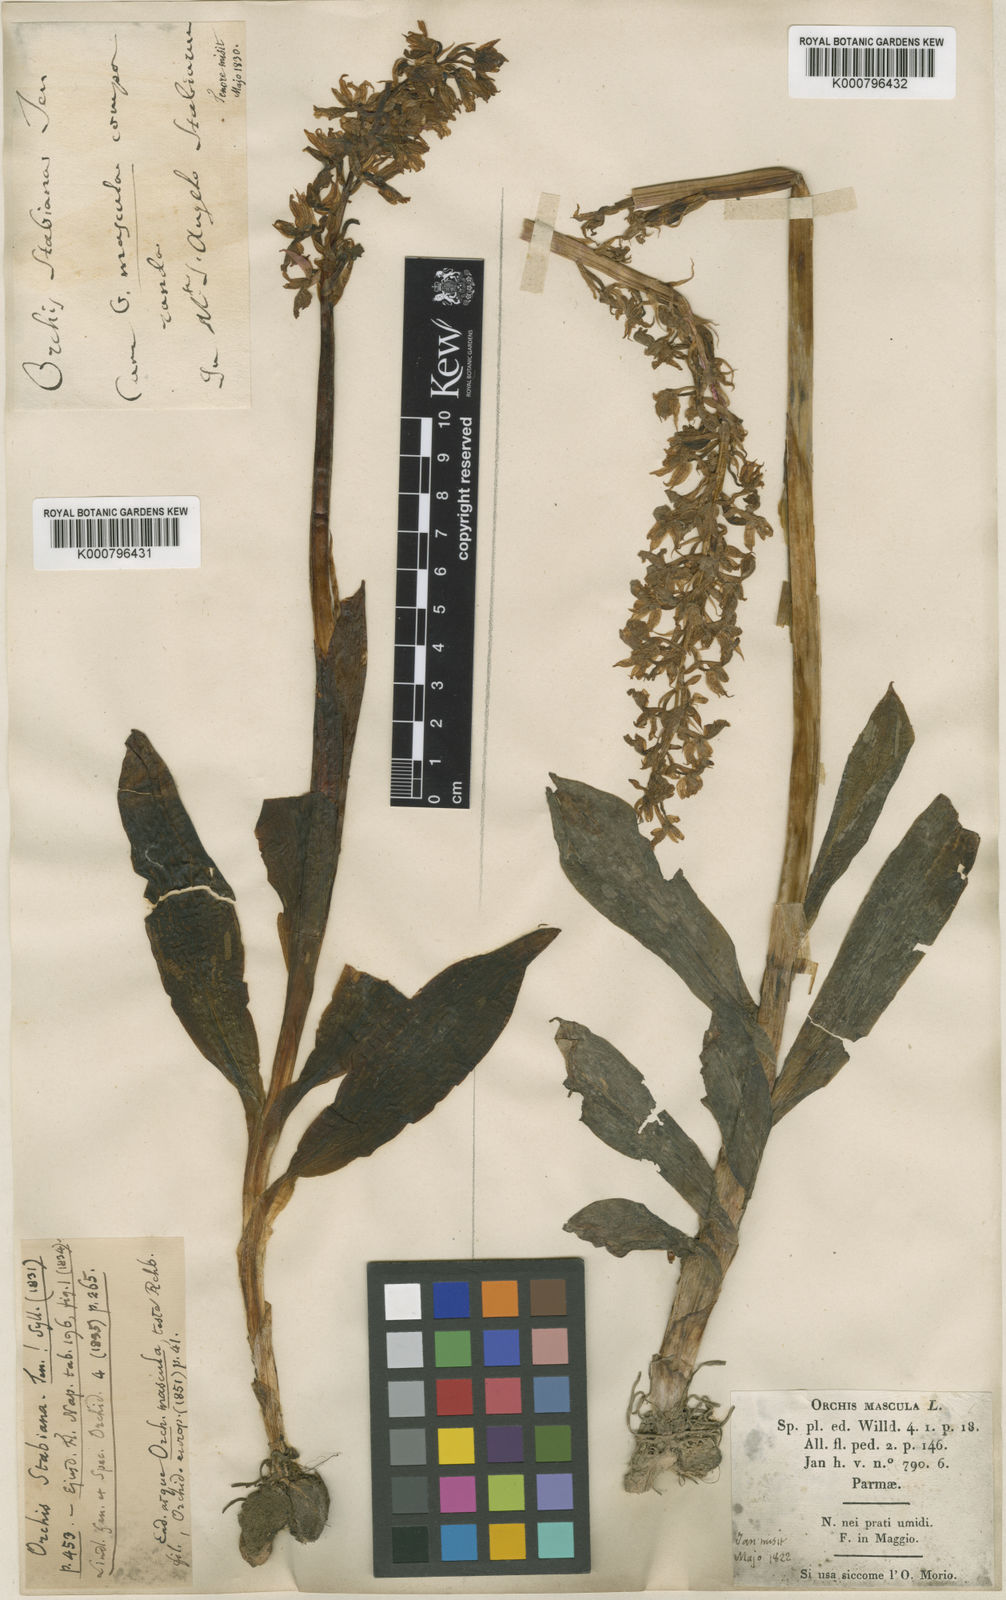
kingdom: Plantae
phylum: Tracheophyta
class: Liliopsida
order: Asparagales
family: Orchidaceae
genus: Orchis
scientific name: Orchis mascula
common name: Early-purple orchid
